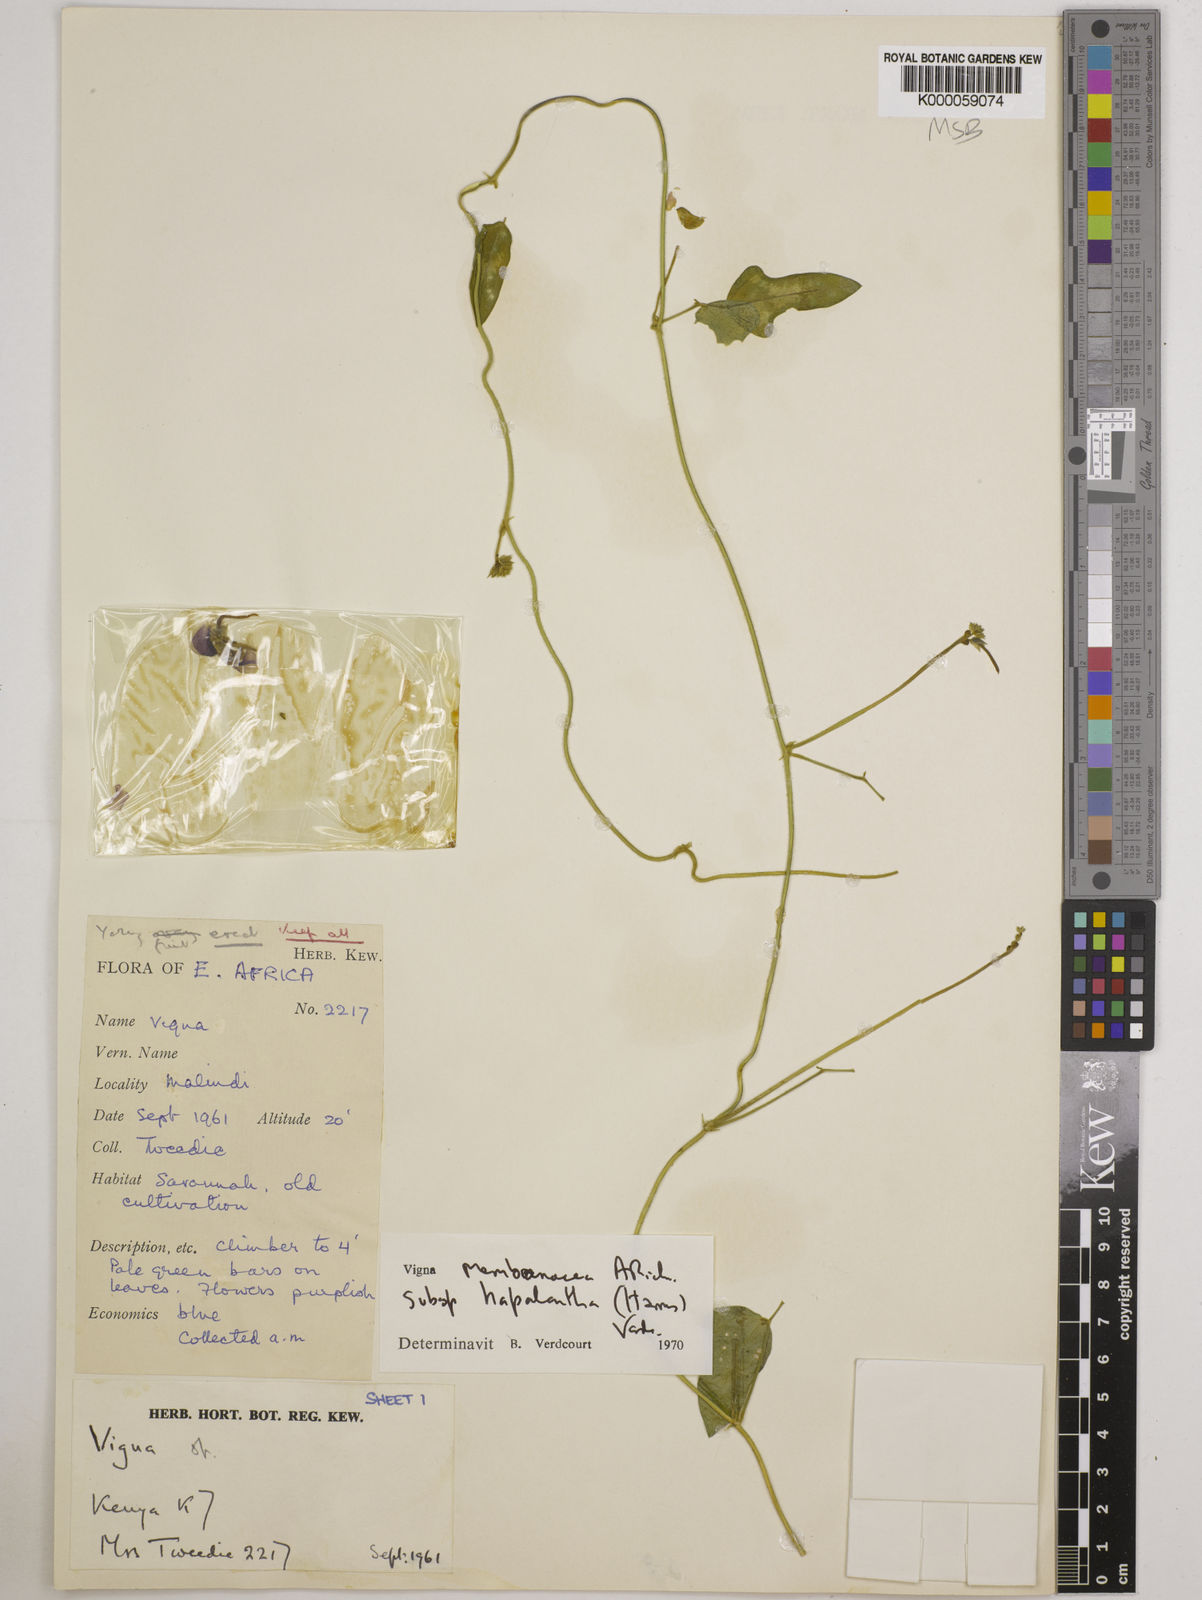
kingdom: Plantae
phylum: Tracheophyta
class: Magnoliopsida
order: Fabales
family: Fabaceae
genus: Vigna
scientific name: Vigna
